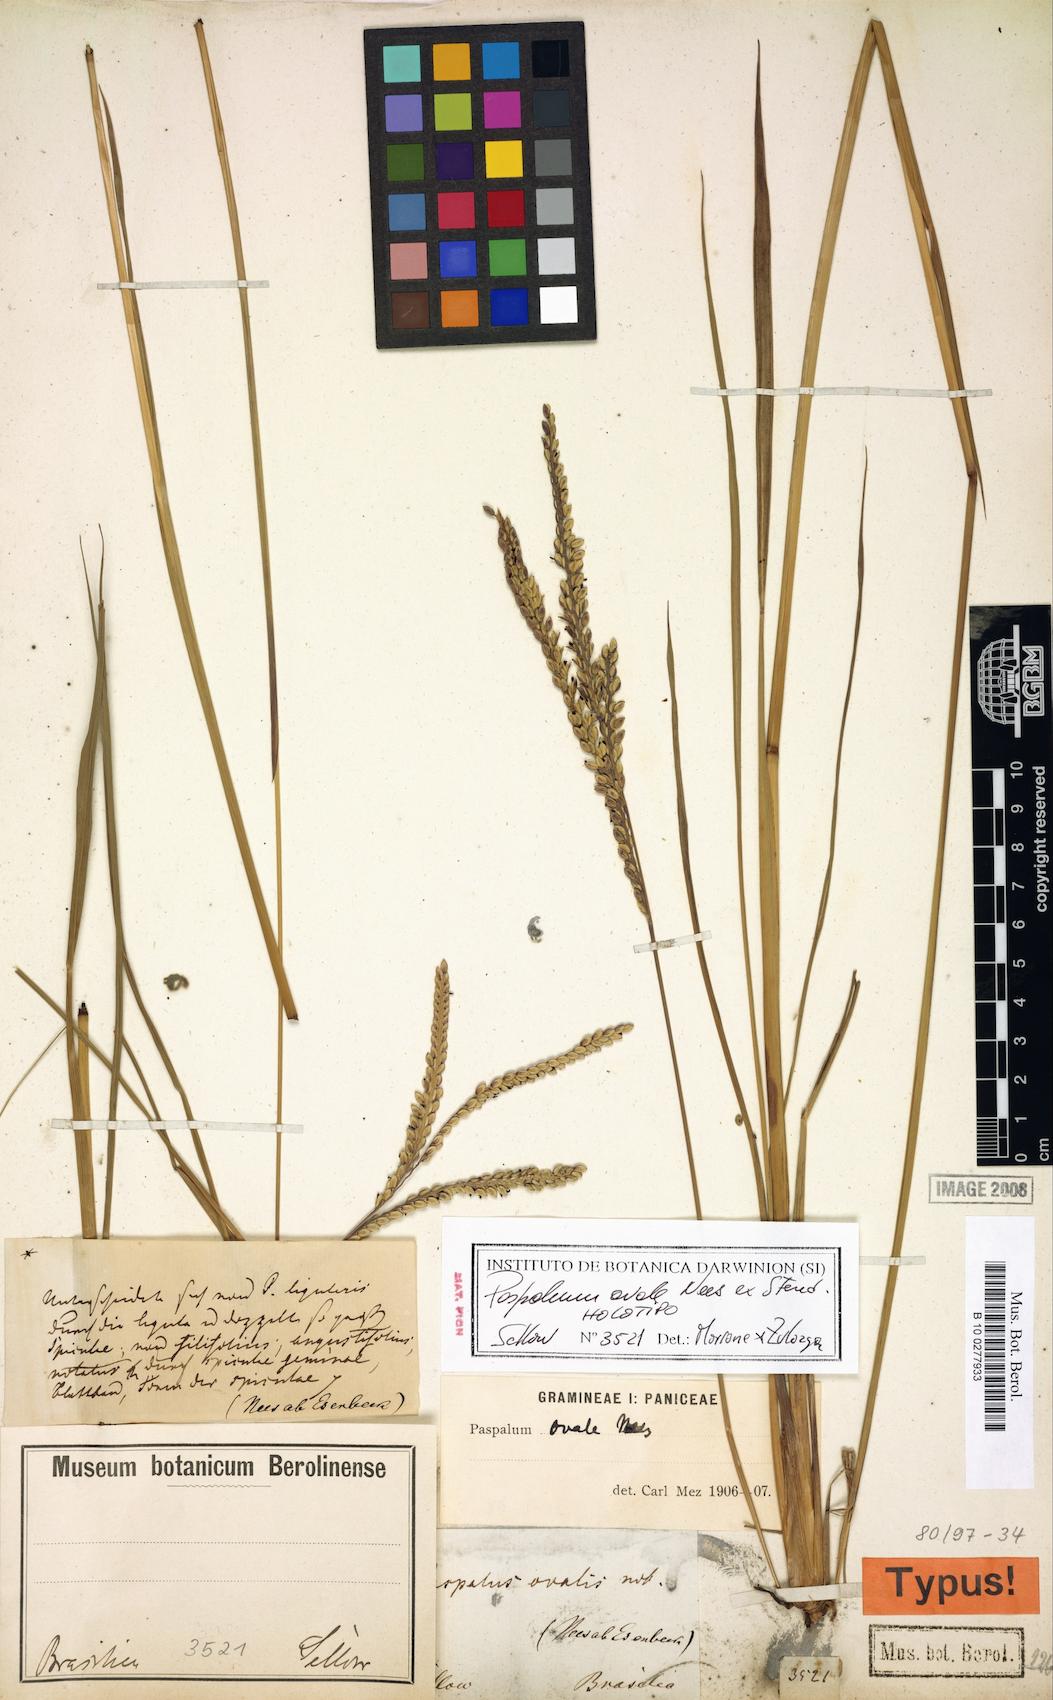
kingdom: Plantae
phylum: Tracheophyta
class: Liliopsida
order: Poales
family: Poaceae
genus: Paspalum
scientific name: Paspalum ovale
